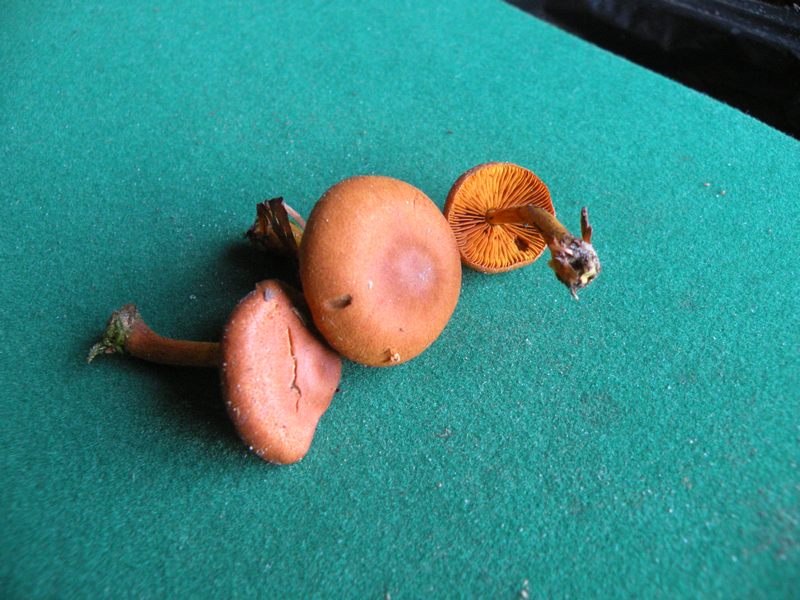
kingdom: Fungi
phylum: Basidiomycota
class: Agaricomycetes
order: Agaricales
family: Cortinariaceae
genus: Cortinarius
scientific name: Cortinarius cinnamomeus
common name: kanel-slørhat
